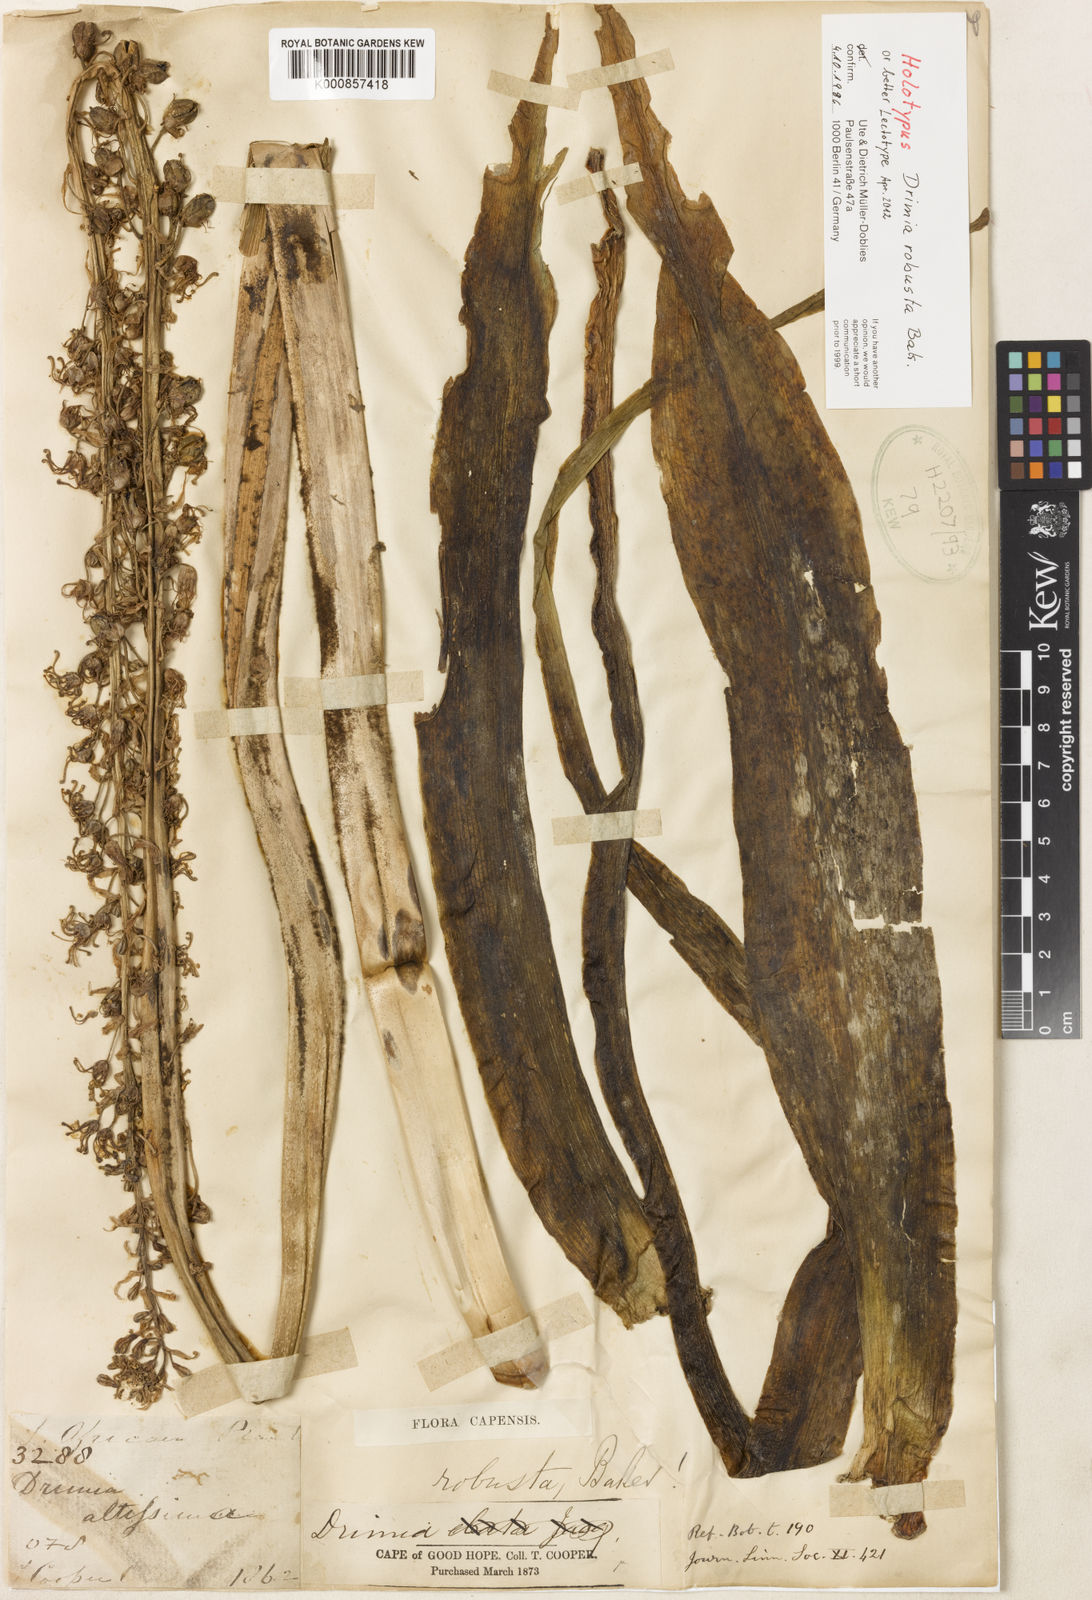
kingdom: Plantae
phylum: Tracheophyta
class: Liliopsida
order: Asparagales
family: Asparagaceae
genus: Drimia
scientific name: Drimia elata
